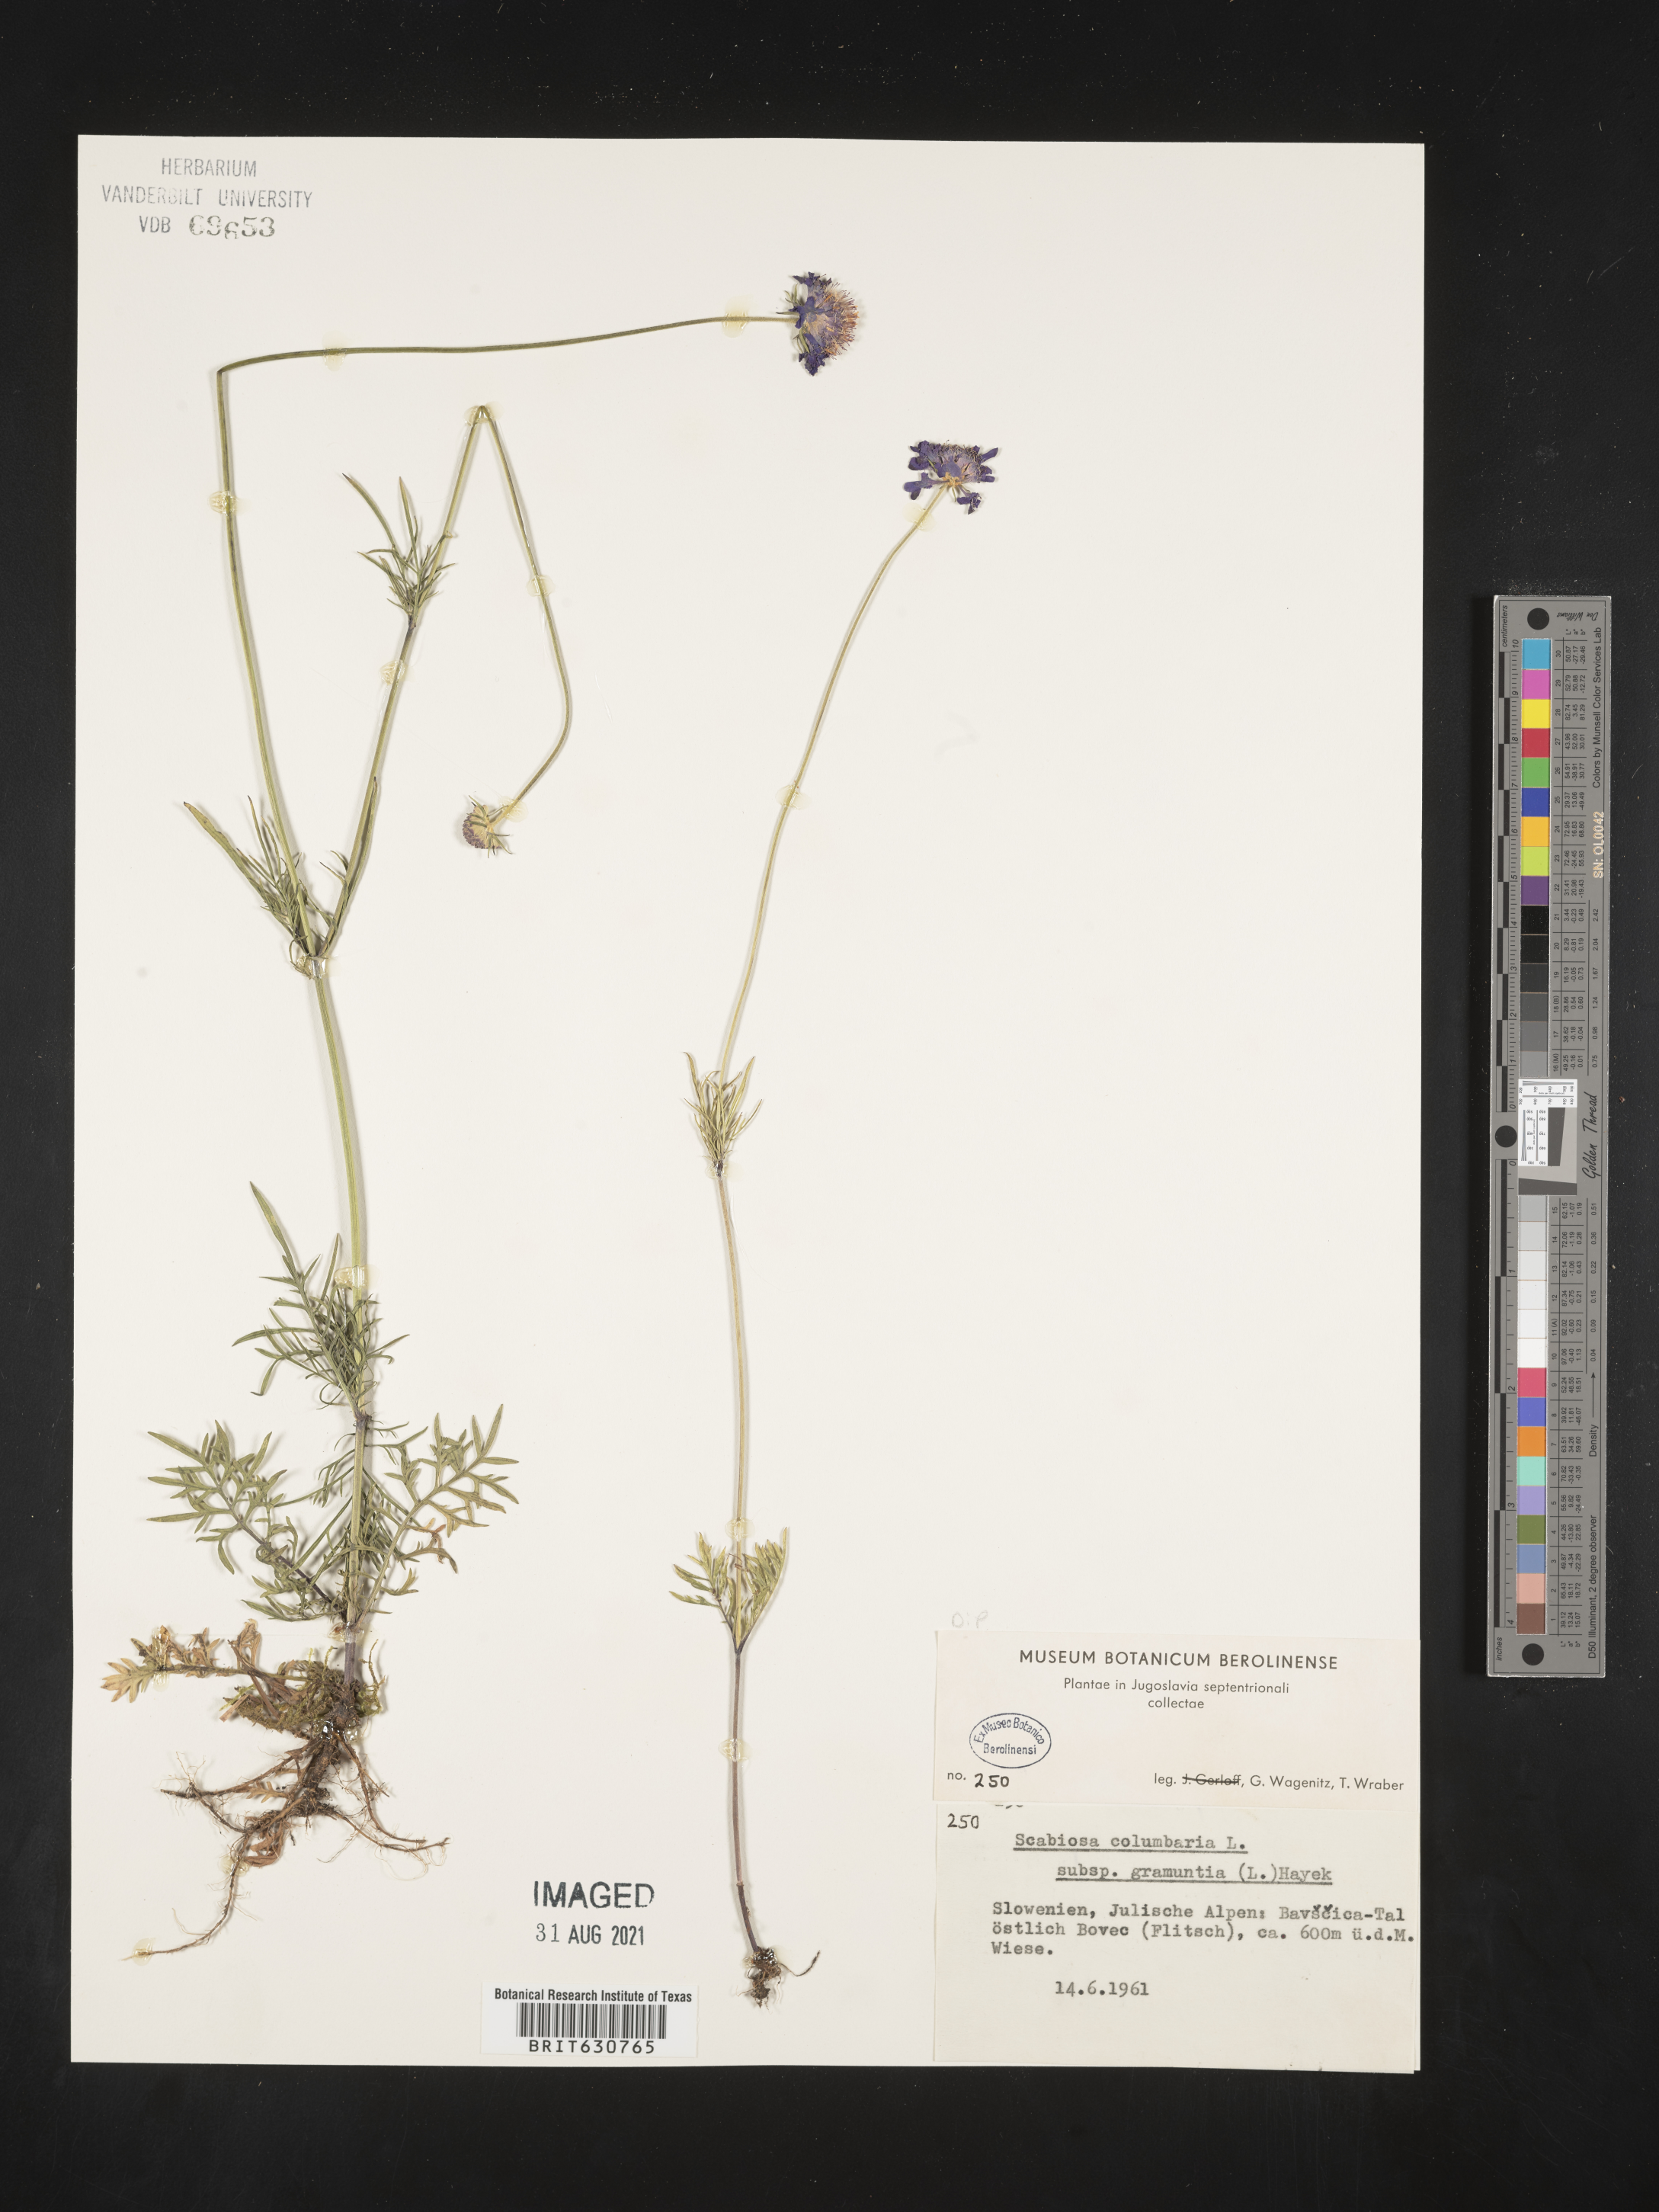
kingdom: Plantae
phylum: Tracheophyta
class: Magnoliopsida
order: Dipsacales
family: Caprifoliaceae
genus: Scabiosa
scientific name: Scabiosa triandra
